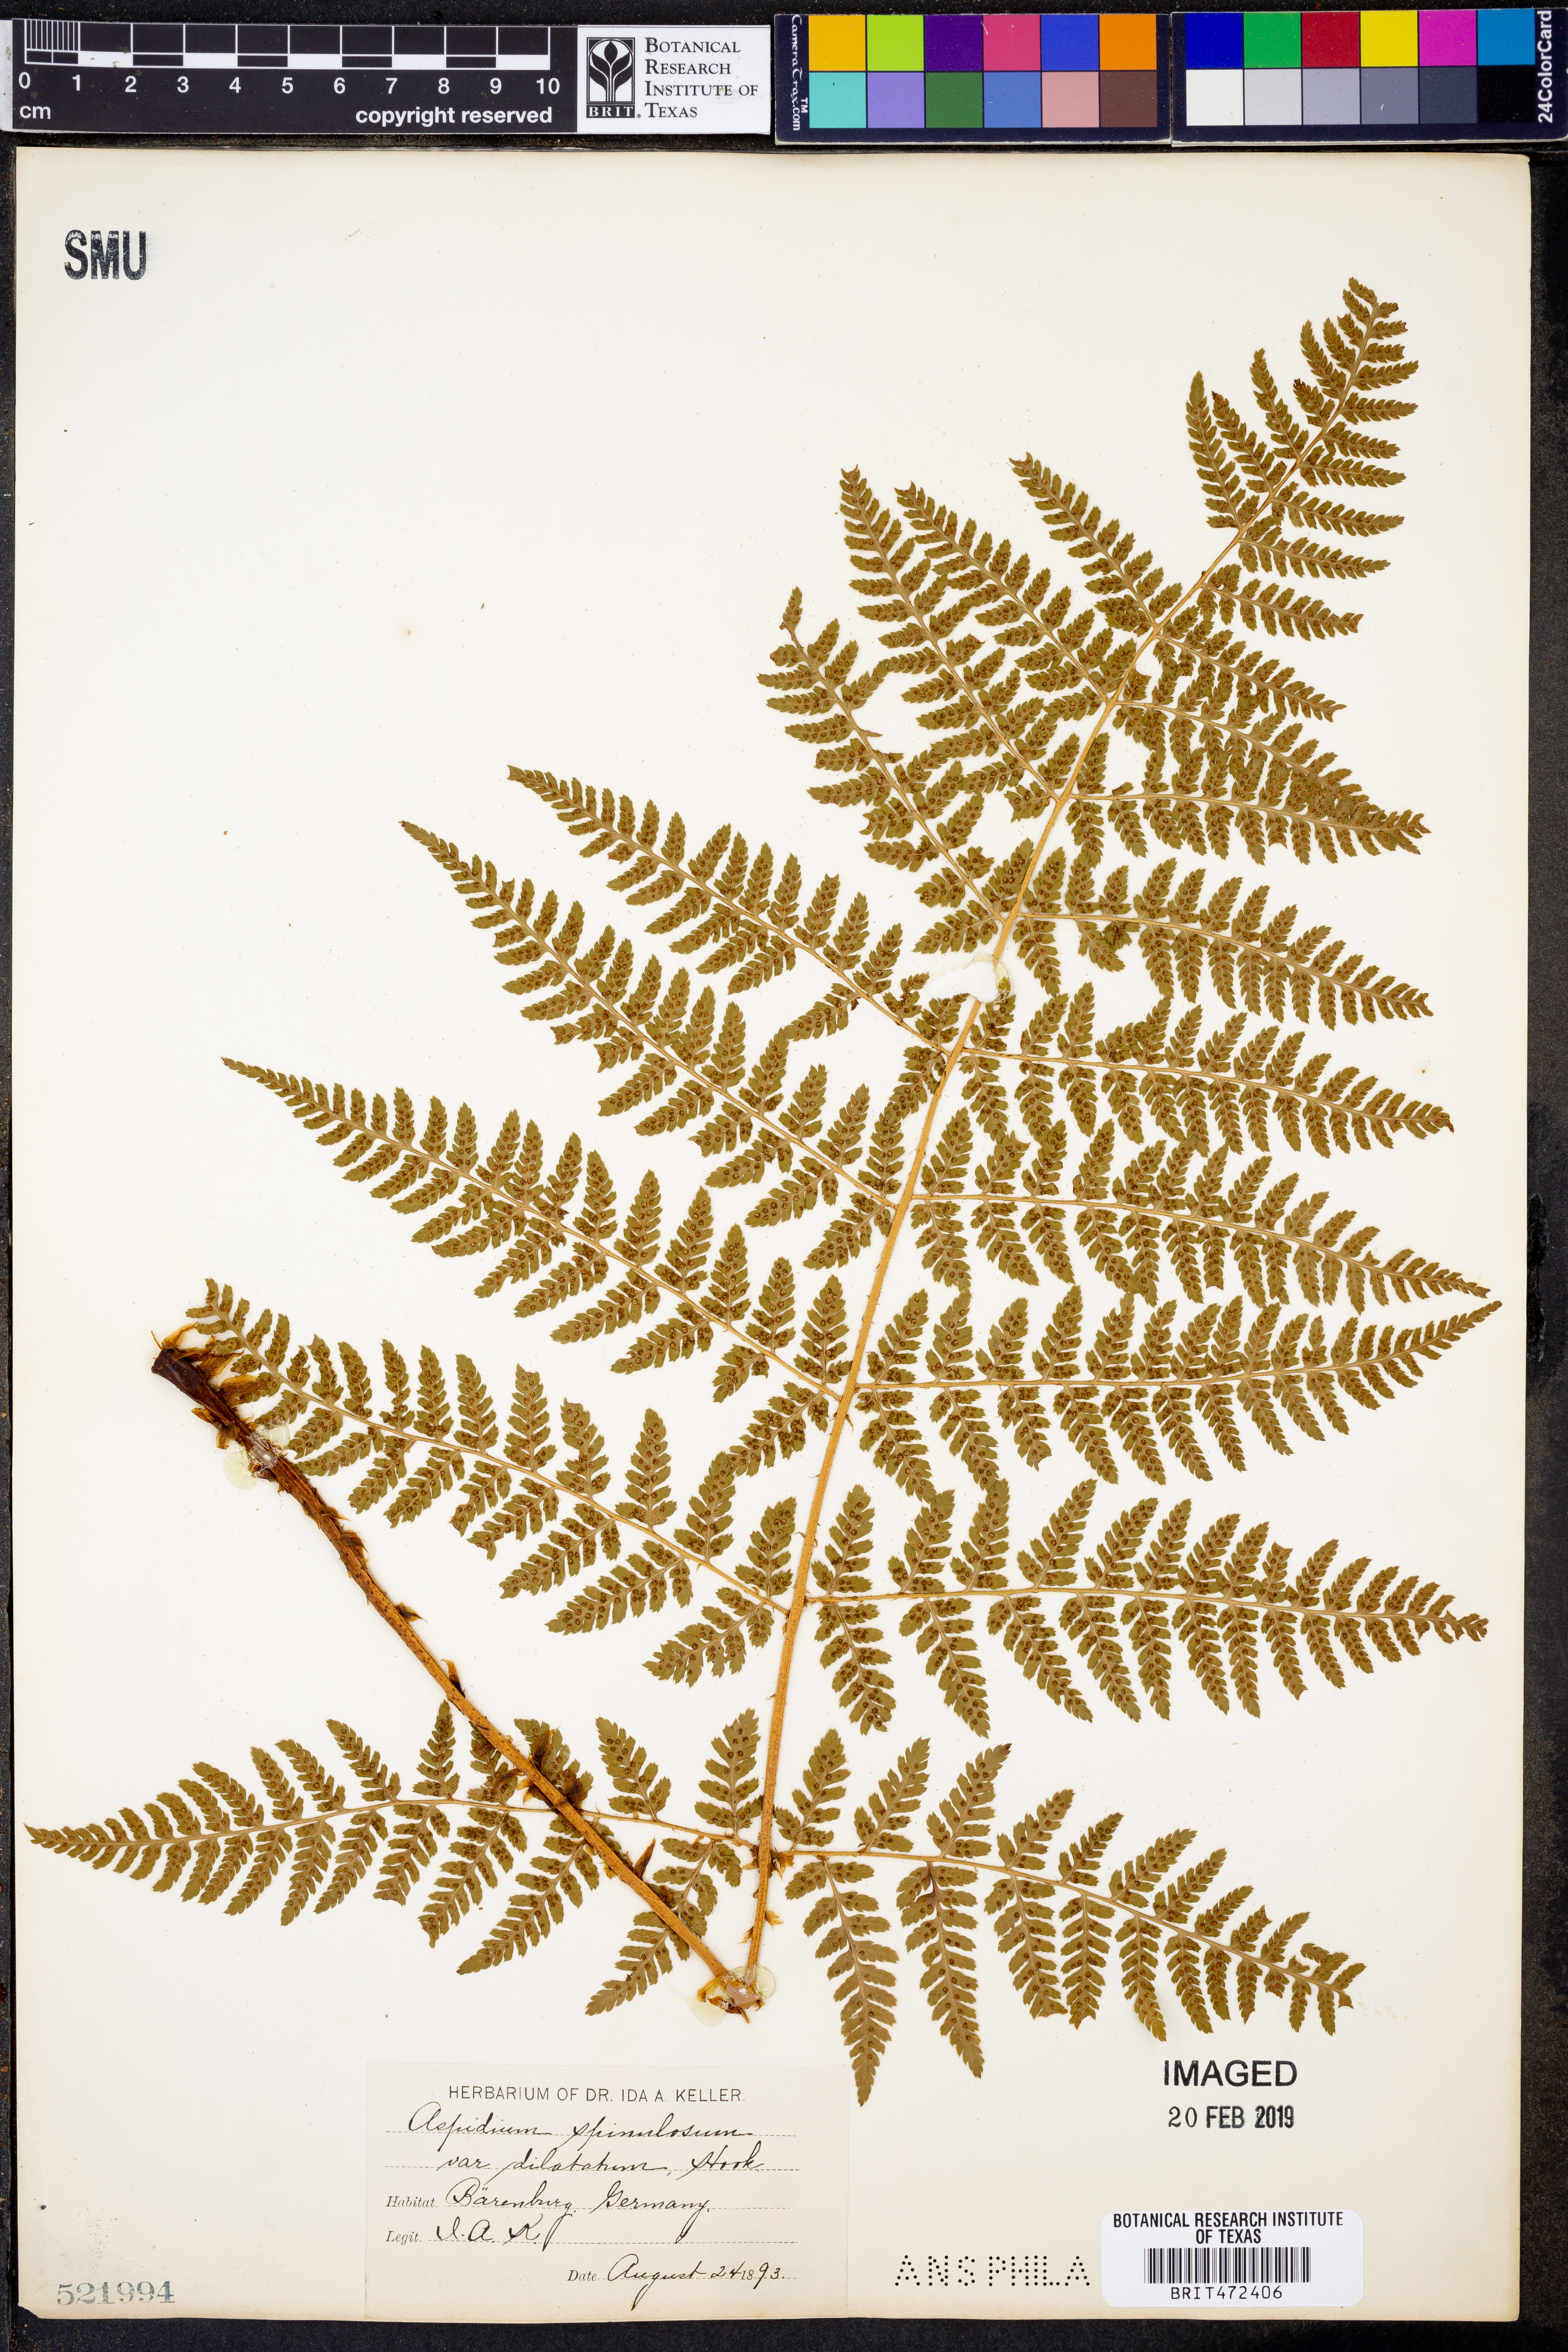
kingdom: Plantae
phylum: Tracheophyta
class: Polypodiopsida
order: Polypodiales
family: Dryopteridaceae
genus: Dryopteris
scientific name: Dryopteris
